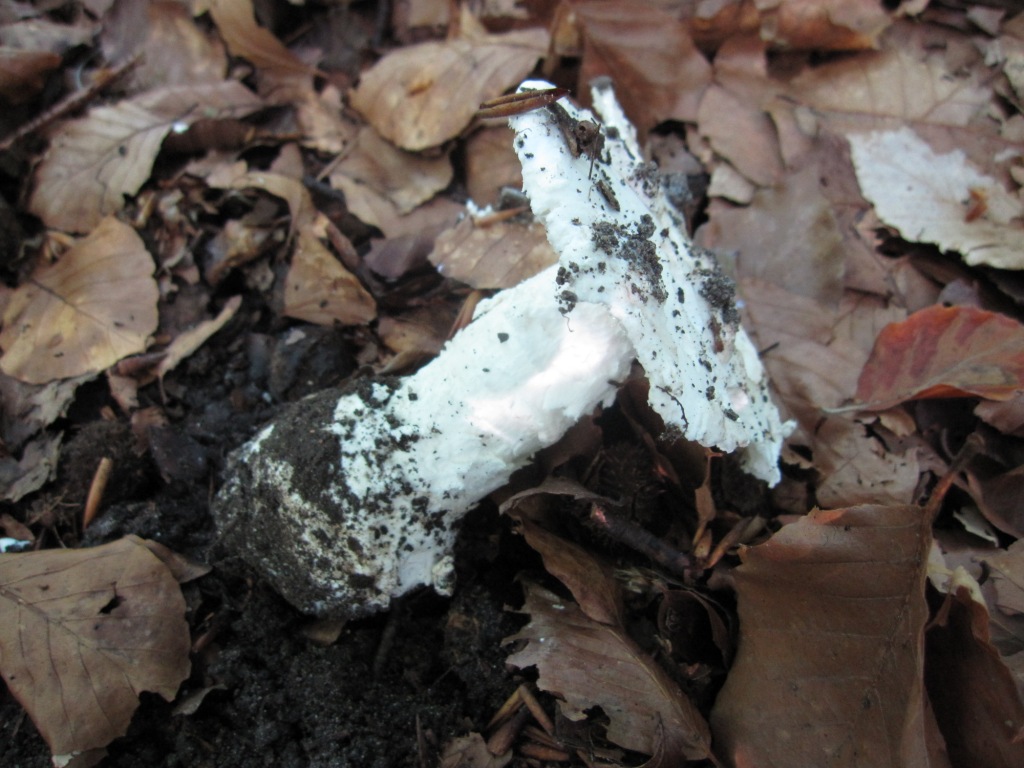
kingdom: Fungi
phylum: Basidiomycota
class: Agaricomycetes
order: Agaricales
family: Amanitaceae
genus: Amanita
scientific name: Amanita
